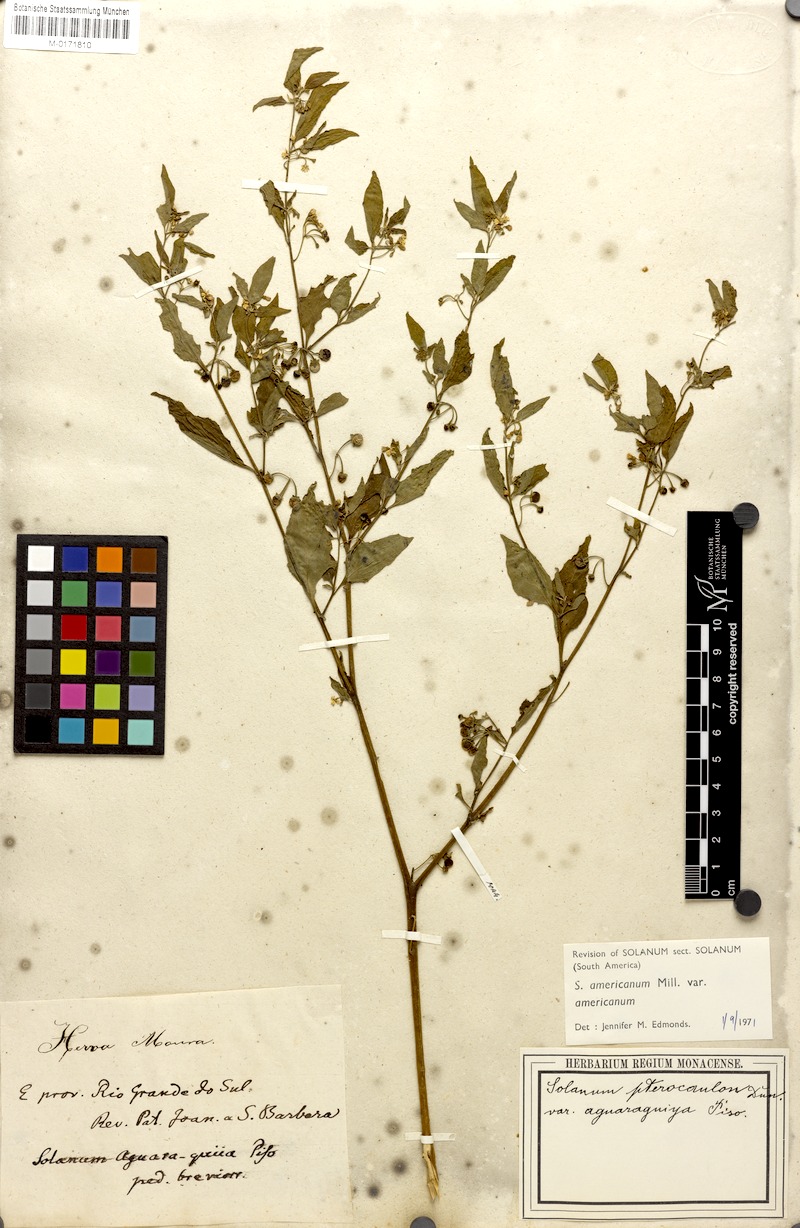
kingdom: Plantae
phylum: Tracheophyta
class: Magnoliopsida
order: Solanales
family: Solanaceae
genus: Solanum
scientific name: Solanum americanum
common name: American black nightshade
